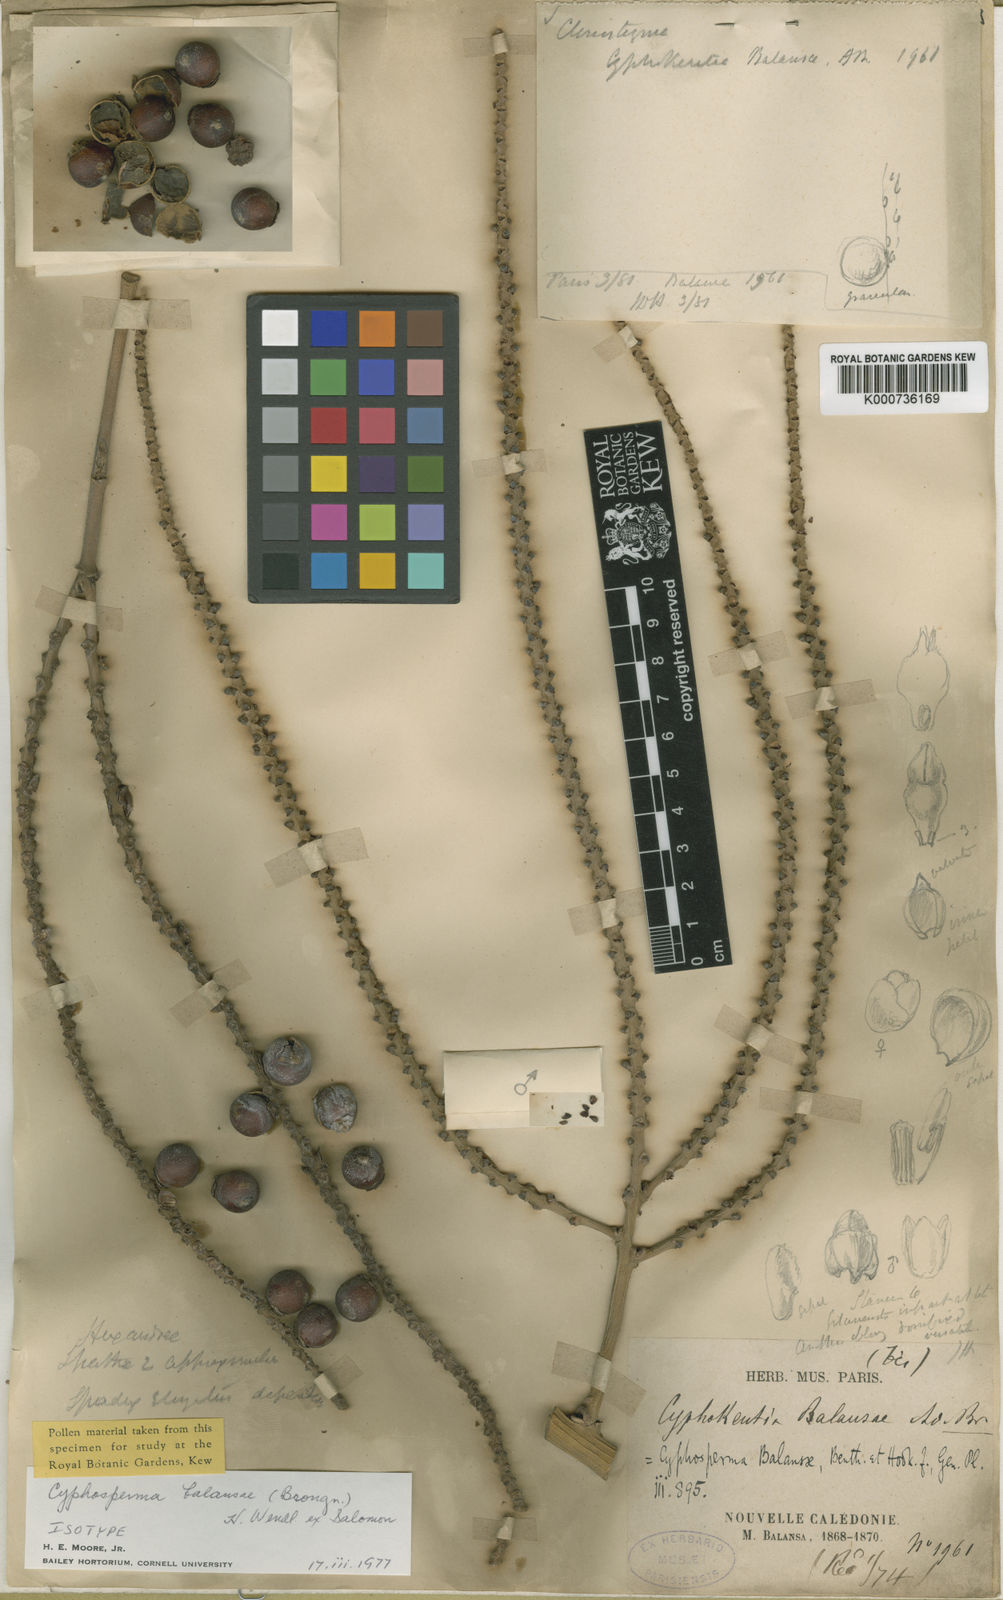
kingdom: Plantae
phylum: Tracheophyta
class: Liliopsida
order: Arecales
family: Arecaceae
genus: Cyphosperma
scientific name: Cyphosperma balansae
